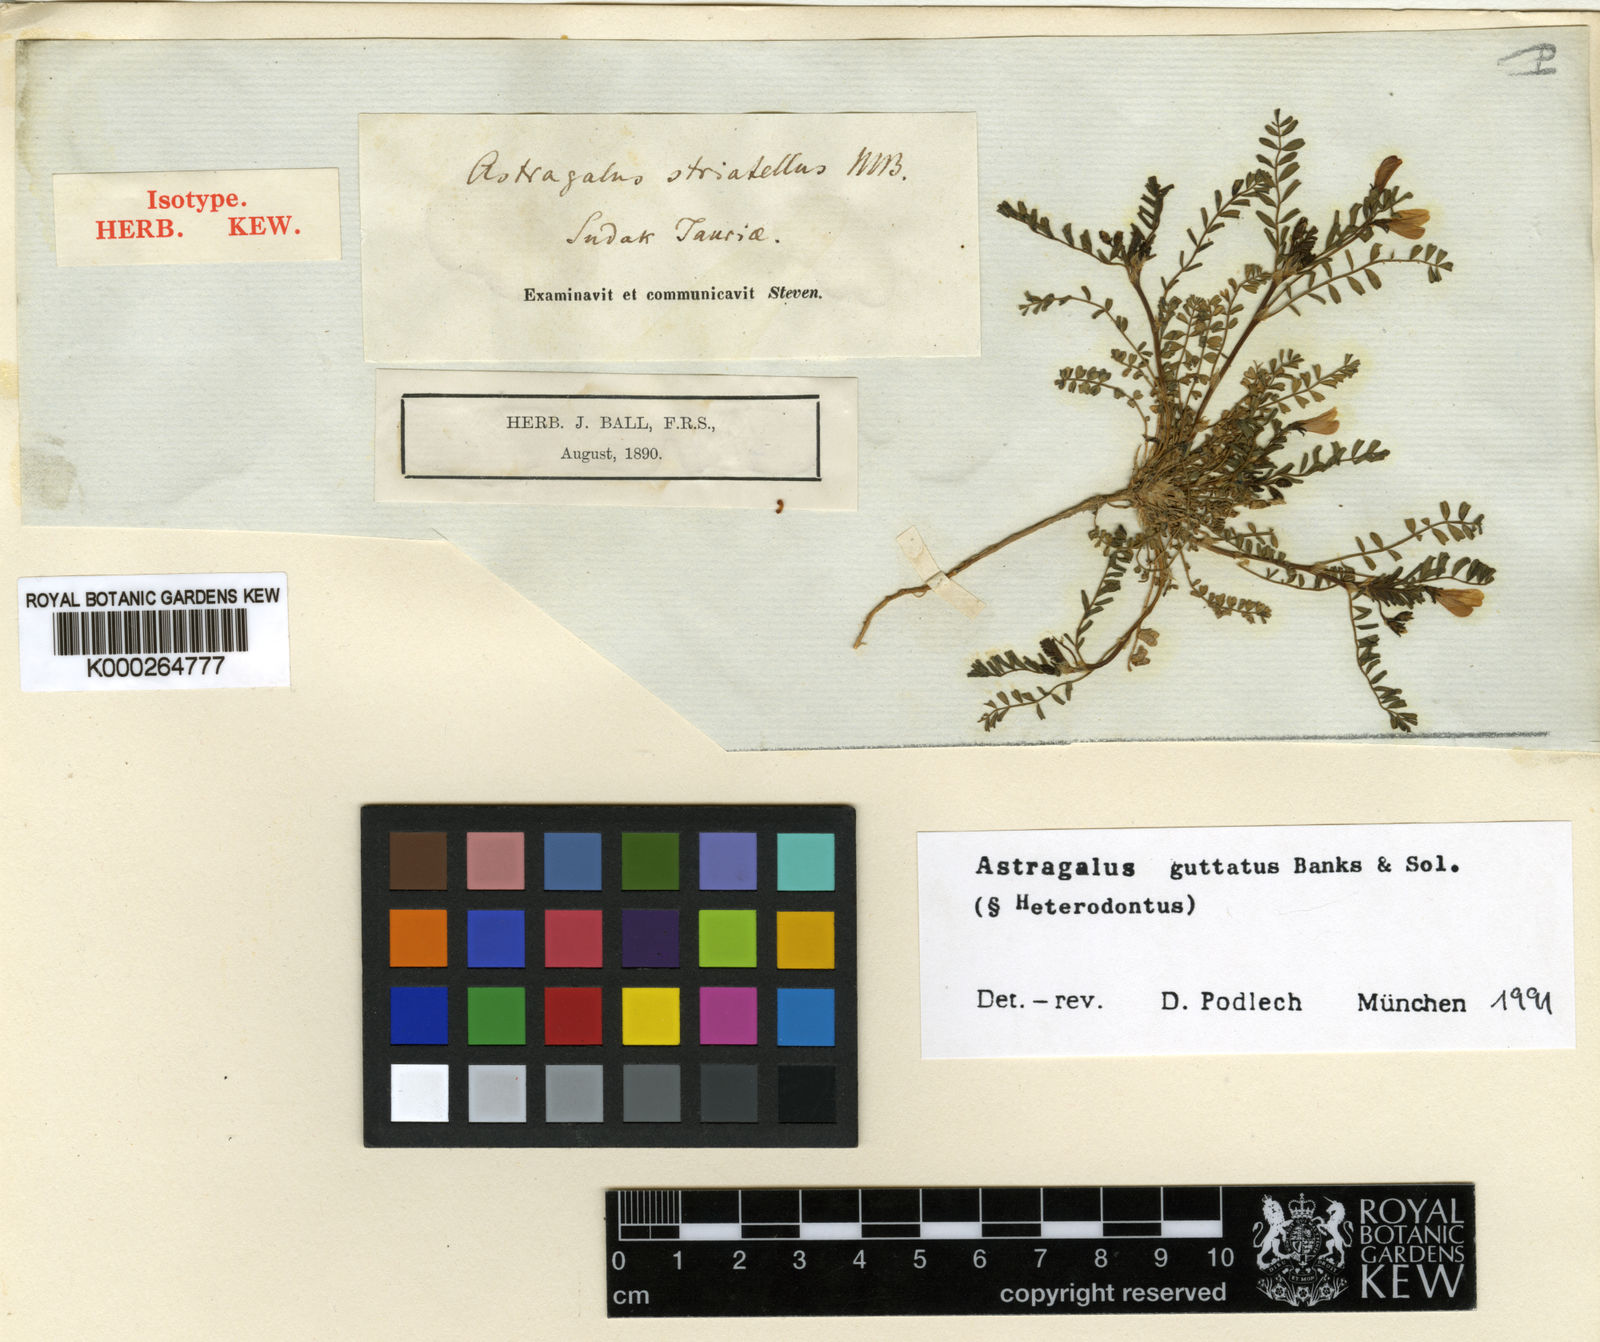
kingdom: Plantae
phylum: Tracheophyta
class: Magnoliopsida
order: Fabales
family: Fabaceae
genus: Astragalus
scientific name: Astragalus guttatus
